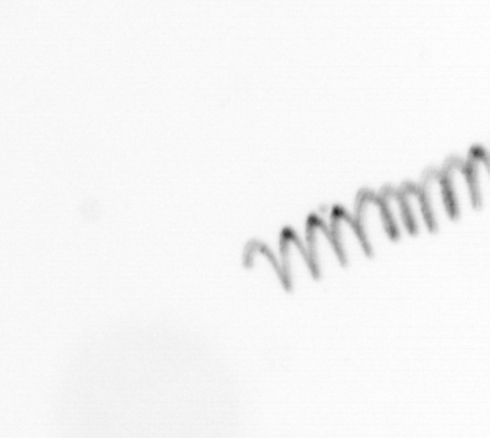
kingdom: Chromista
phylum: Ochrophyta
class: Bacillariophyceae
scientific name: Bacillariophyceae
